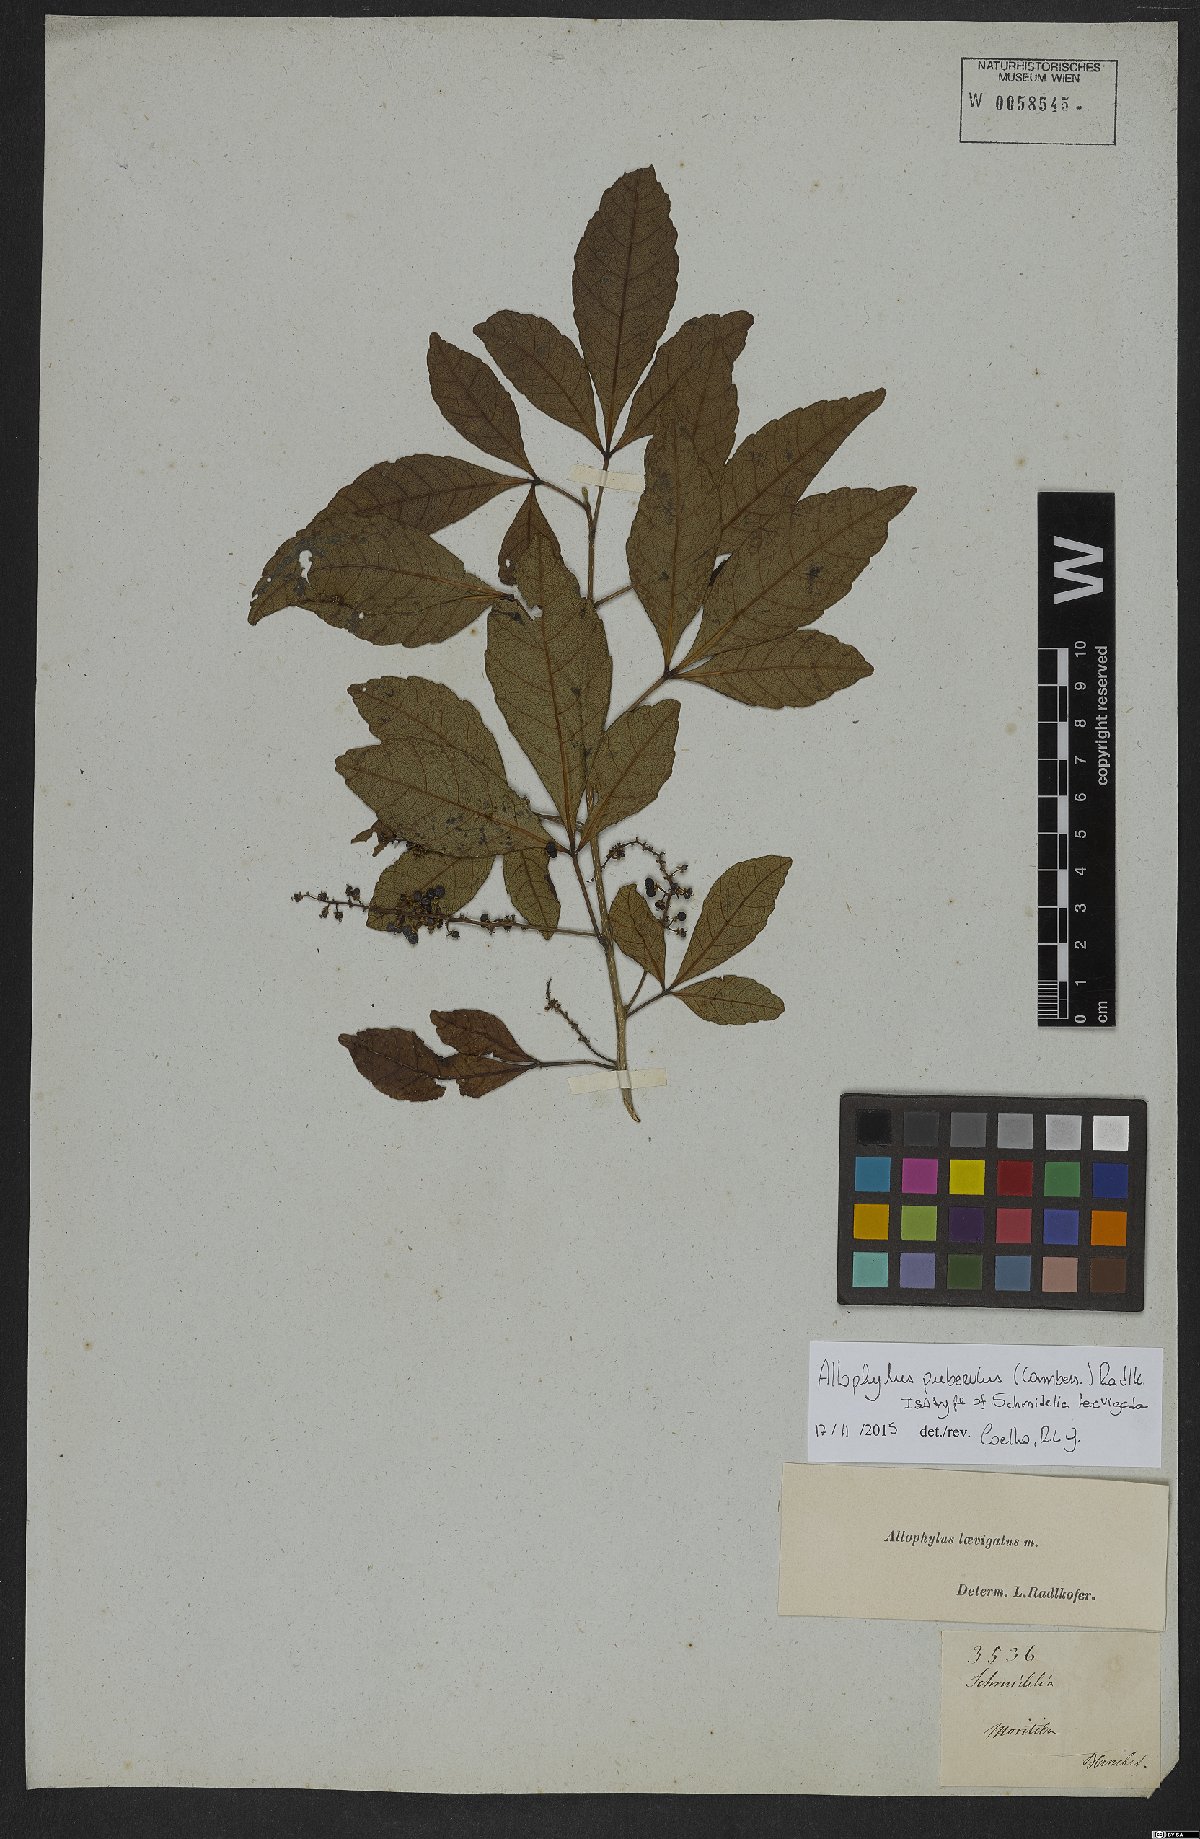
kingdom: Plantae
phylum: Tracheophyta
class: Magnoliopsida
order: Sapindales
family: Sapindaceae
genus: Allophylus
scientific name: Allophylus puberulus
